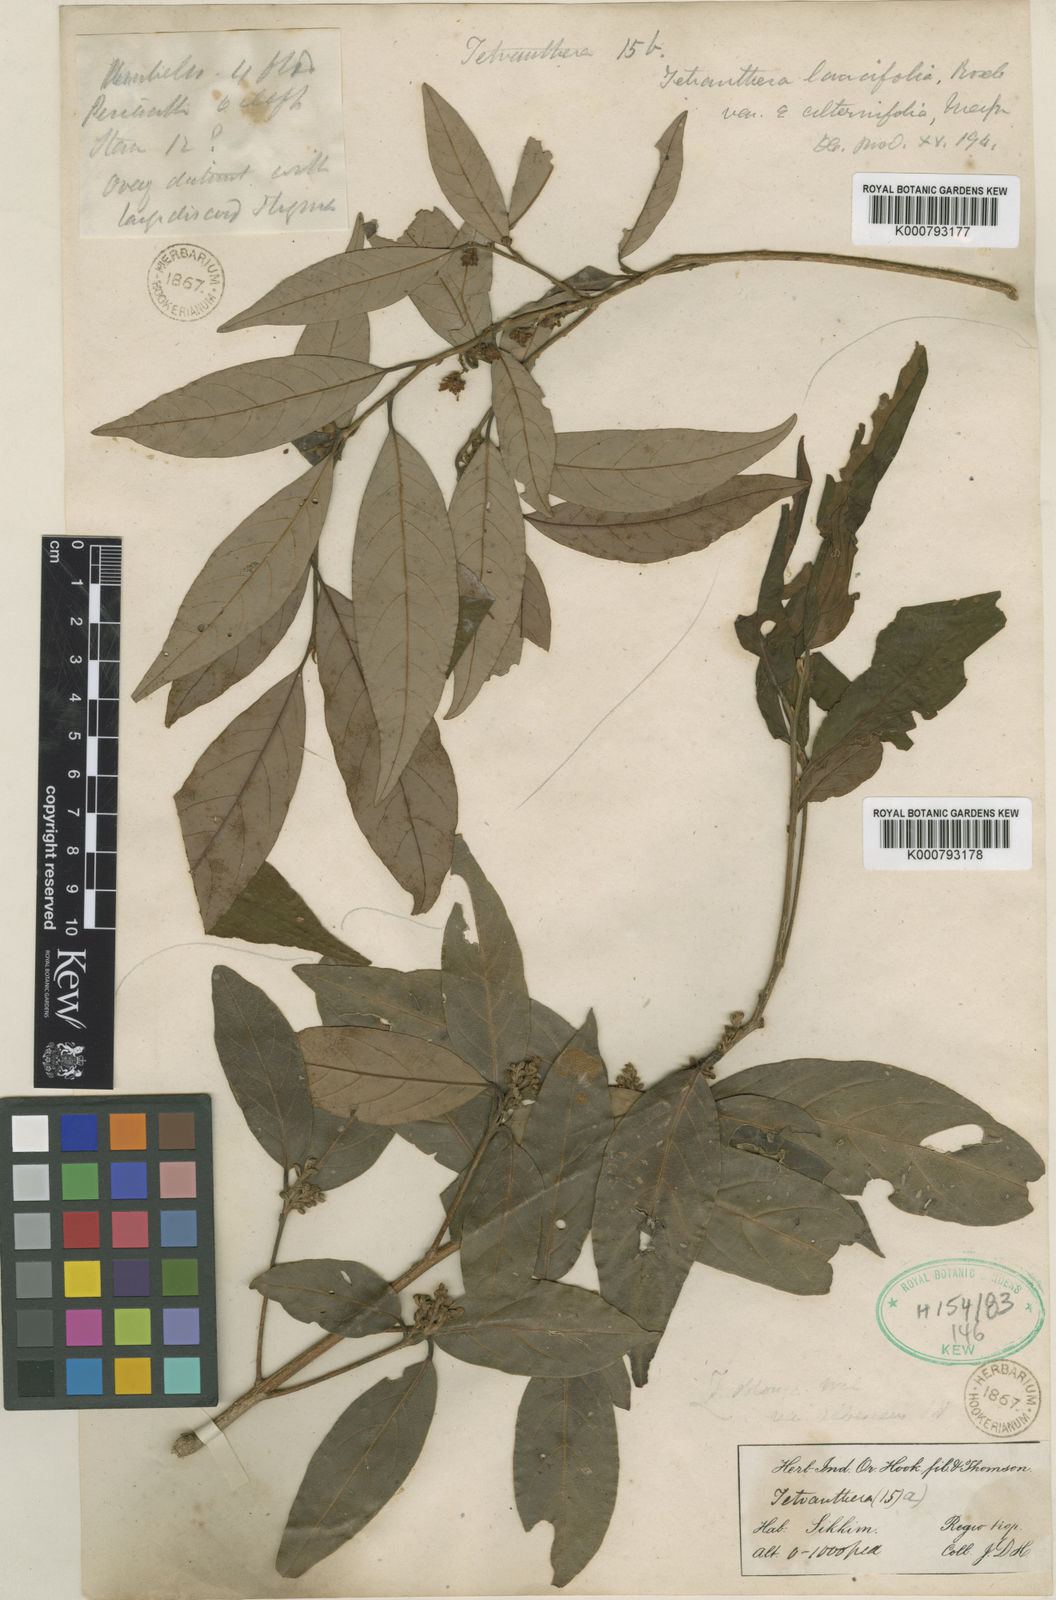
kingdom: Plantae
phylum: Tracheophyta
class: Magnoliopsida
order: Laurales
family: Lauraceae
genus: Litsea
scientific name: Litsea
